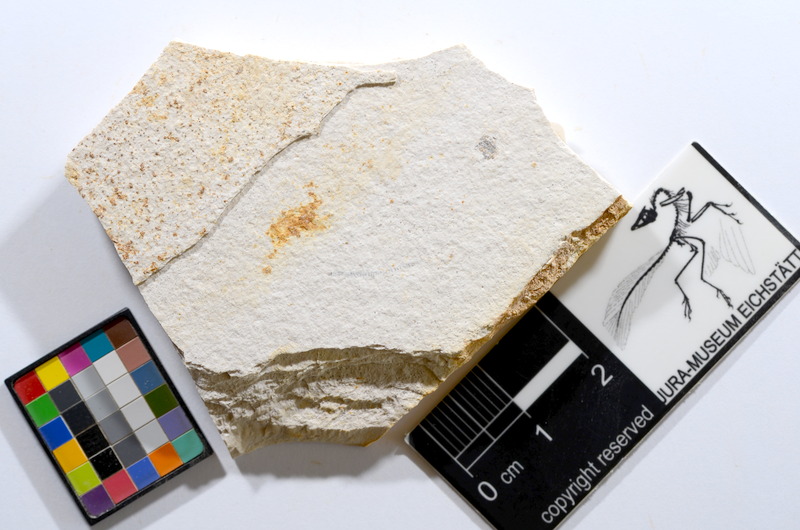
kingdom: Animalia
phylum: Chordata
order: Salmoniformes
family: Orthogonikleithridae
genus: Orthogonikleithrus
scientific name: Orthogonikleithrus hoelli
